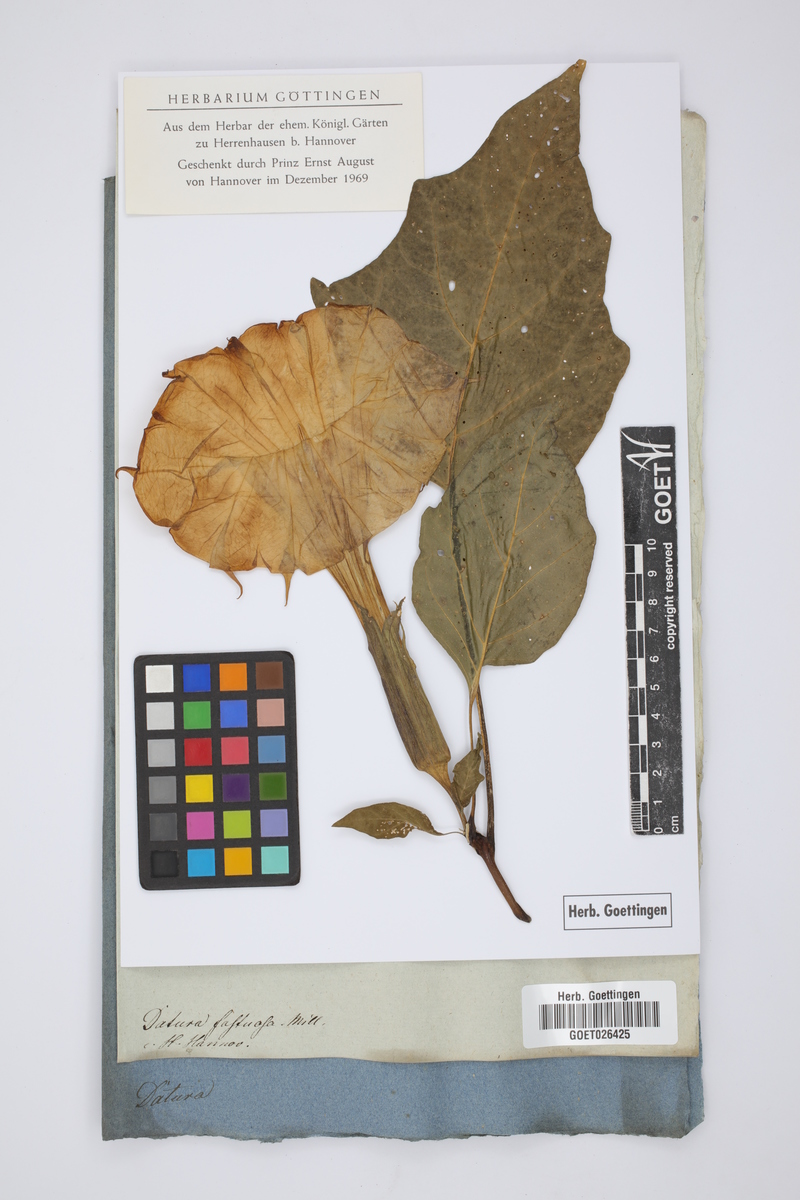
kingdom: Plantae
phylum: Tracheophyta
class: Magnoliopsida
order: Solanales
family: Solanaceae
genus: Datura
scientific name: Datura metel
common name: Jimsonweed
